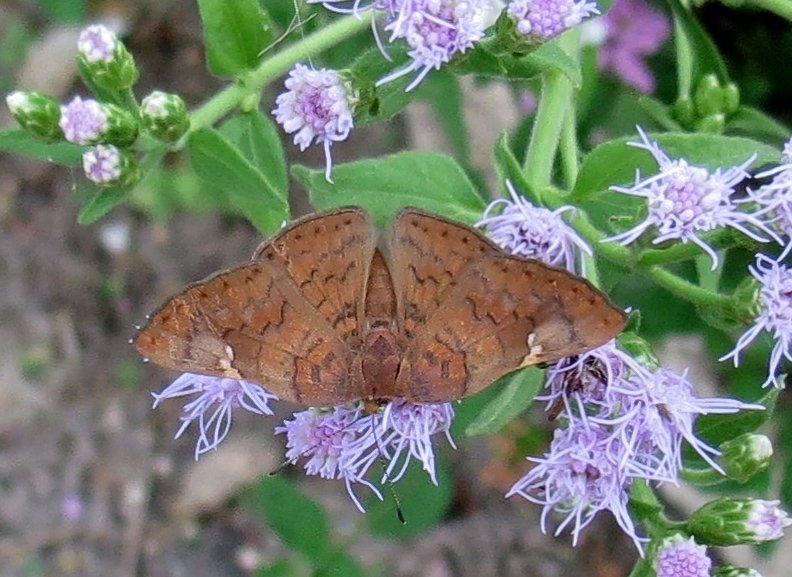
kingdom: Animalia
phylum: Arthropoda
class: Insecta
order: Lepidoptera
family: Lycaenidae
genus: Emesis
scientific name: Emesis emesia
